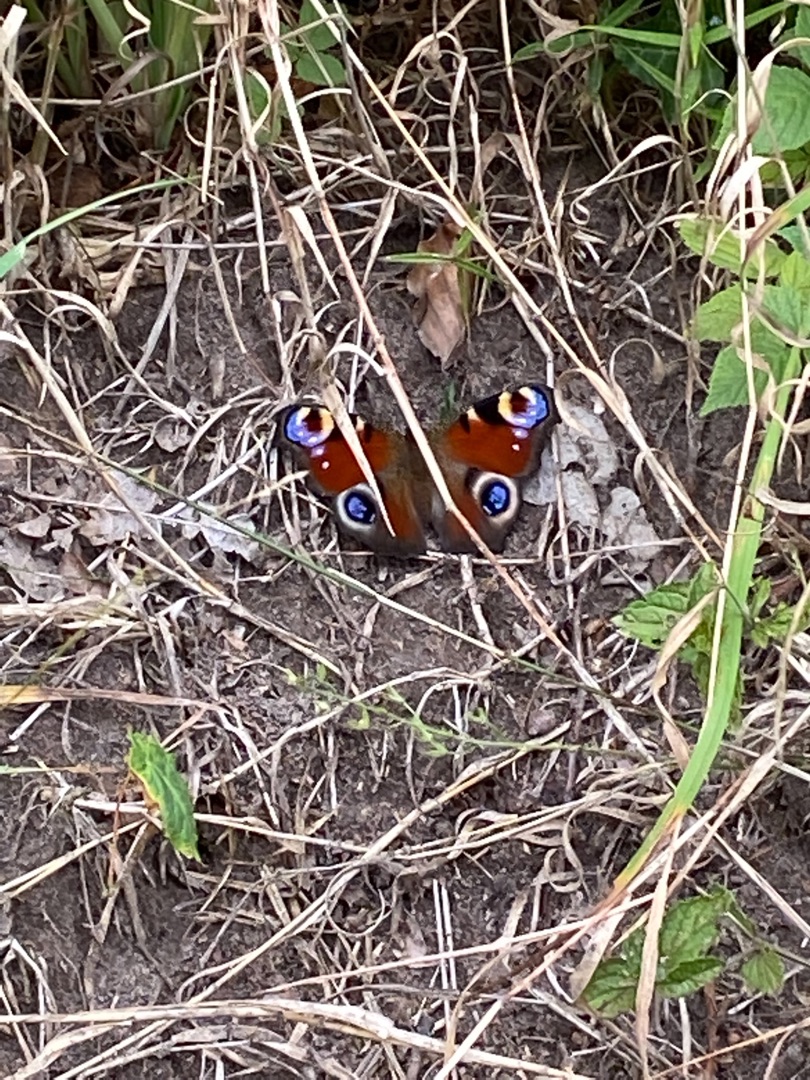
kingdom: Animalia
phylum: Arthropoda
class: Insecta
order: Lepidoptera
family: Nymphalidae
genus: Aglais
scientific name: Aglais io
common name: Dagpåfugleøje
